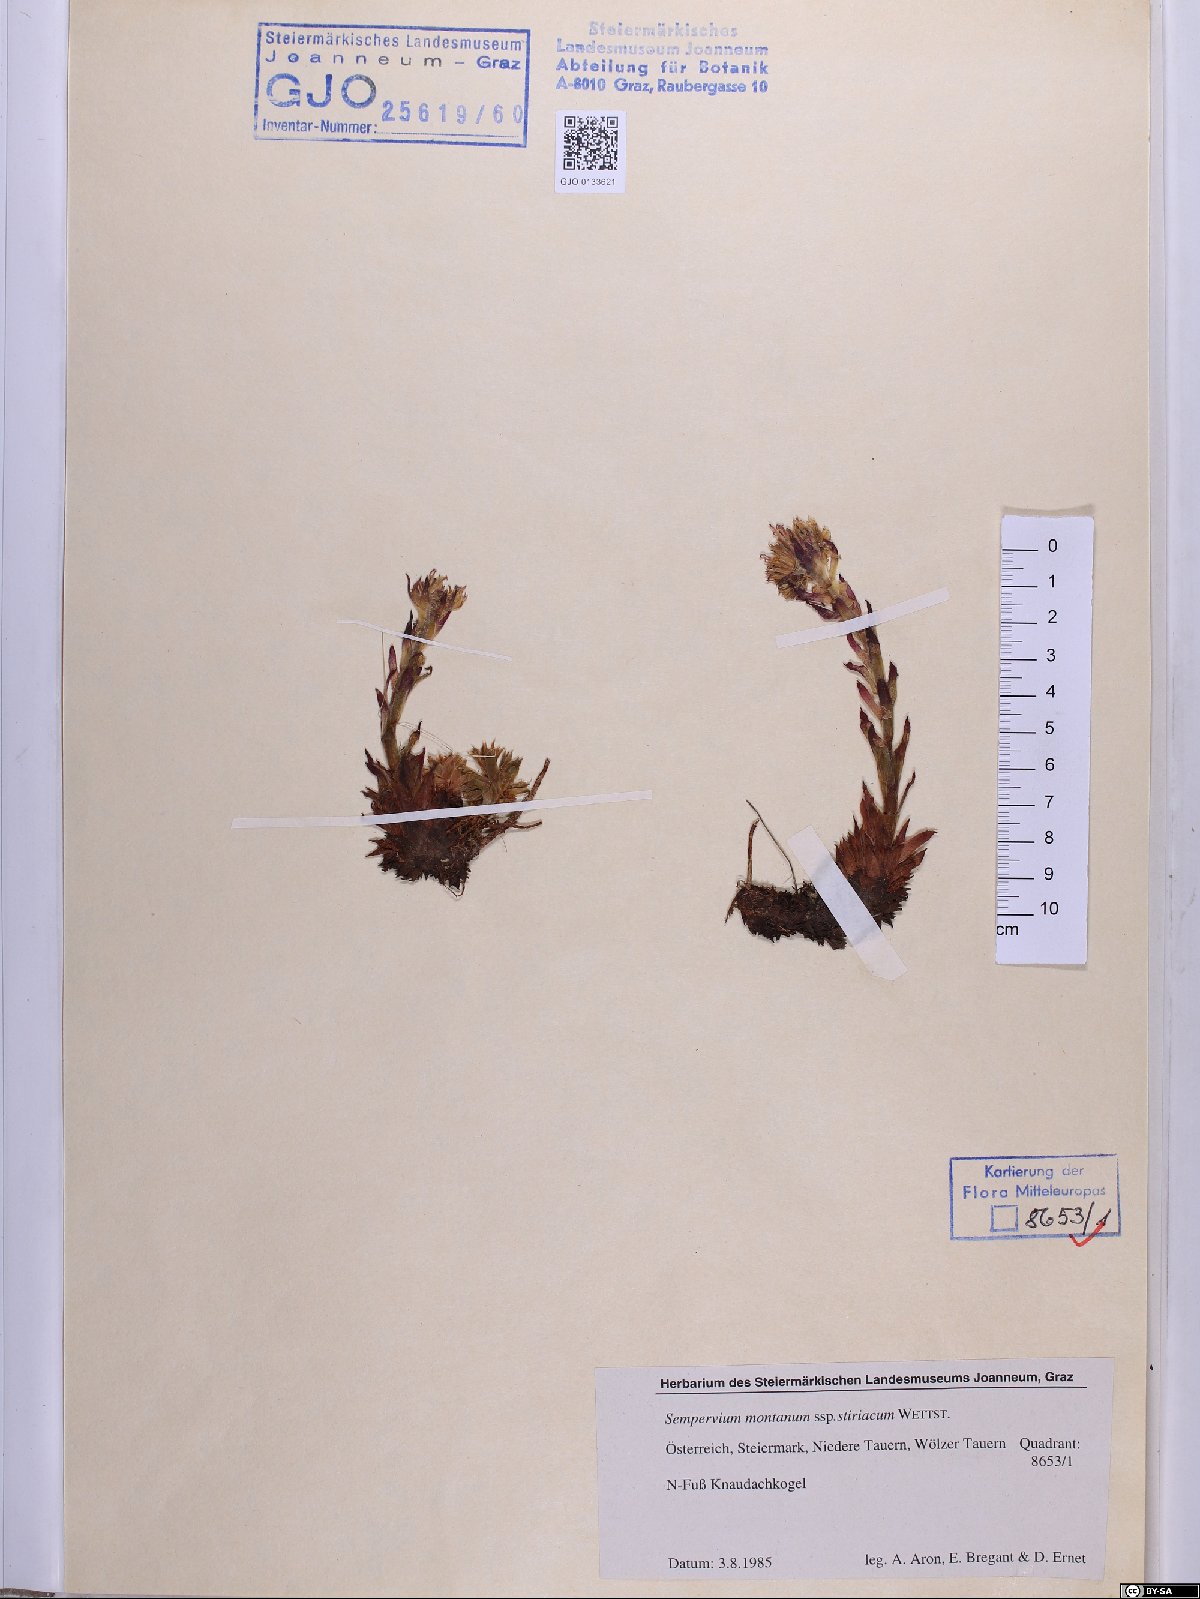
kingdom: Plantae
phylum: Tracheophyta
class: Magnoliopsida
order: Saxifragales
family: Crassulaceae
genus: Sempervivum
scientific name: Sempervivum montanum
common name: Mountain house-leek
